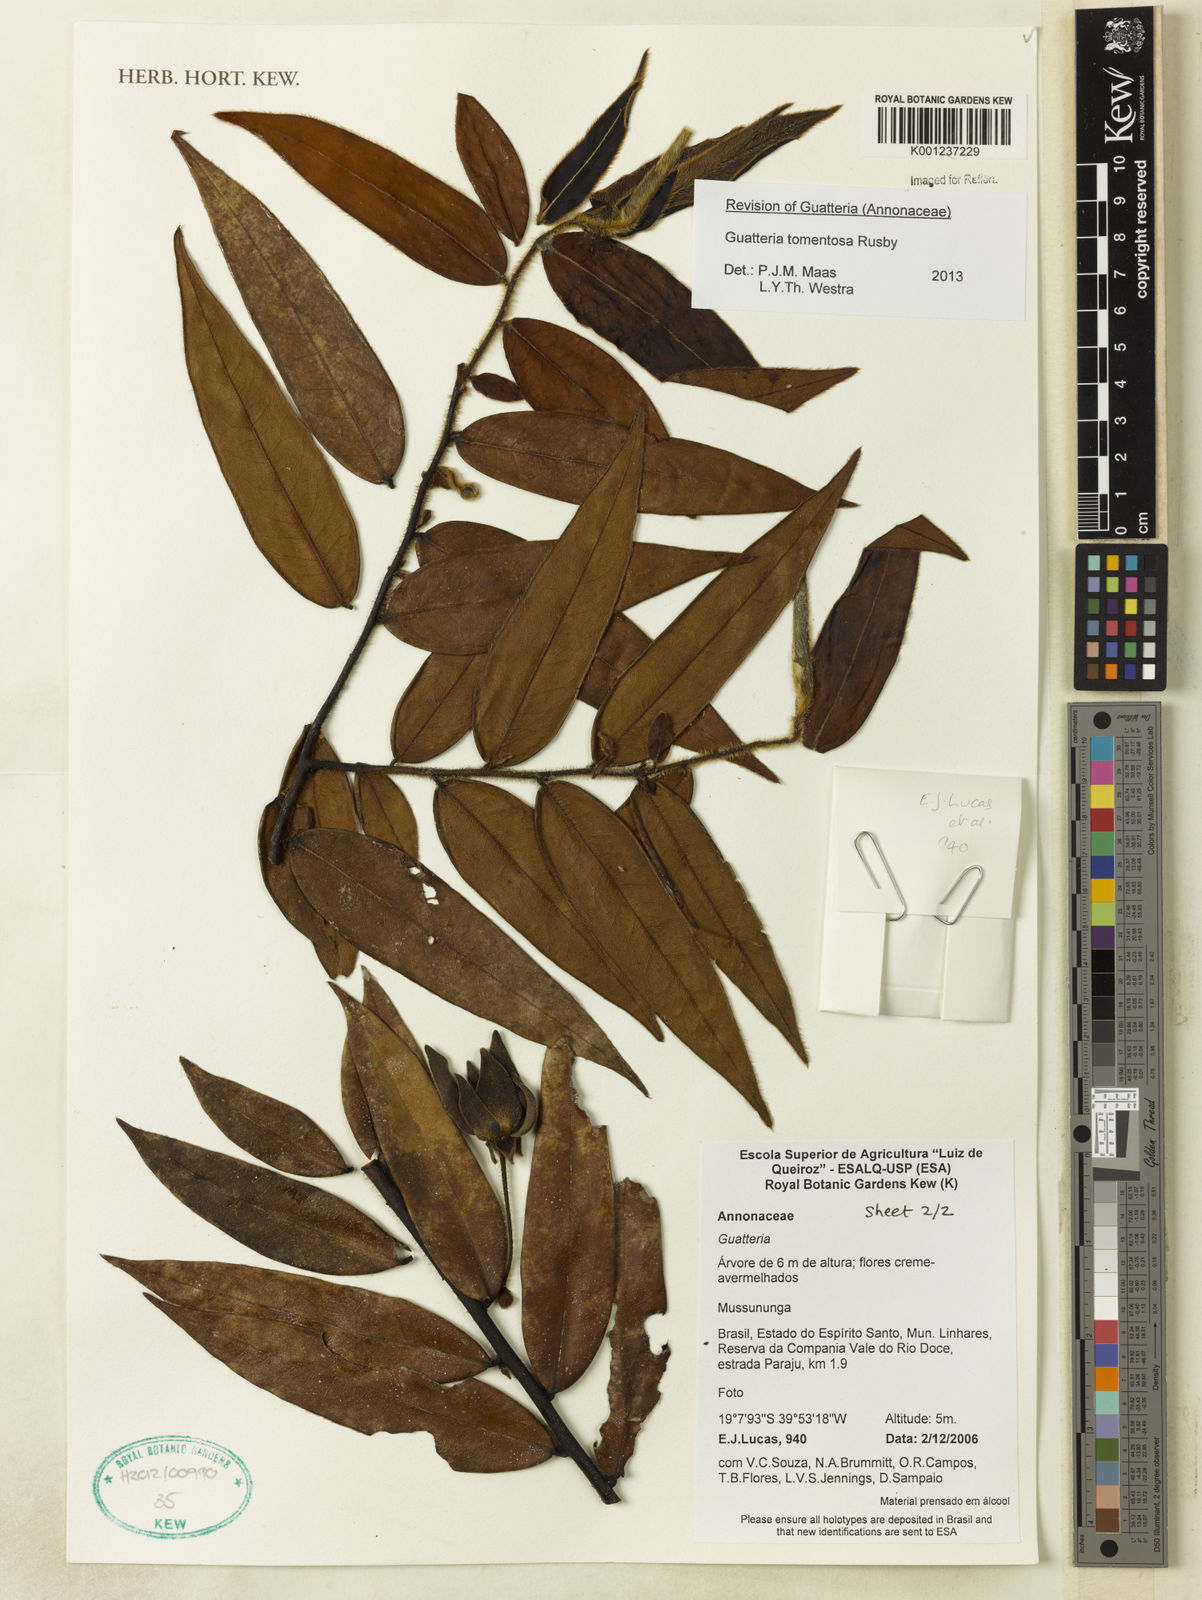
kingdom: Plantae
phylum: Tracheophyta
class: Magnoliopsida
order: Magnoliales
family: Annonaceae
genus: Guatteria
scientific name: Guatteria tomentosa
